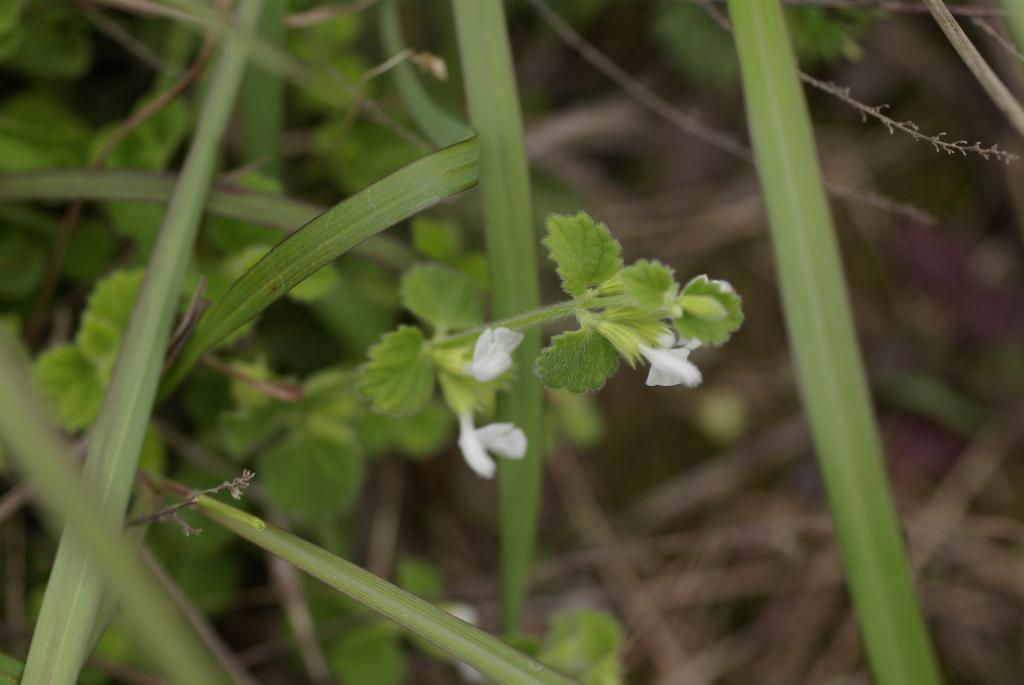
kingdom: Plantae
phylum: Tracheophyta
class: Magnoliopsida
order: Lamiales
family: Lamiaceae
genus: Leucas
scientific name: Leucas chinensis
